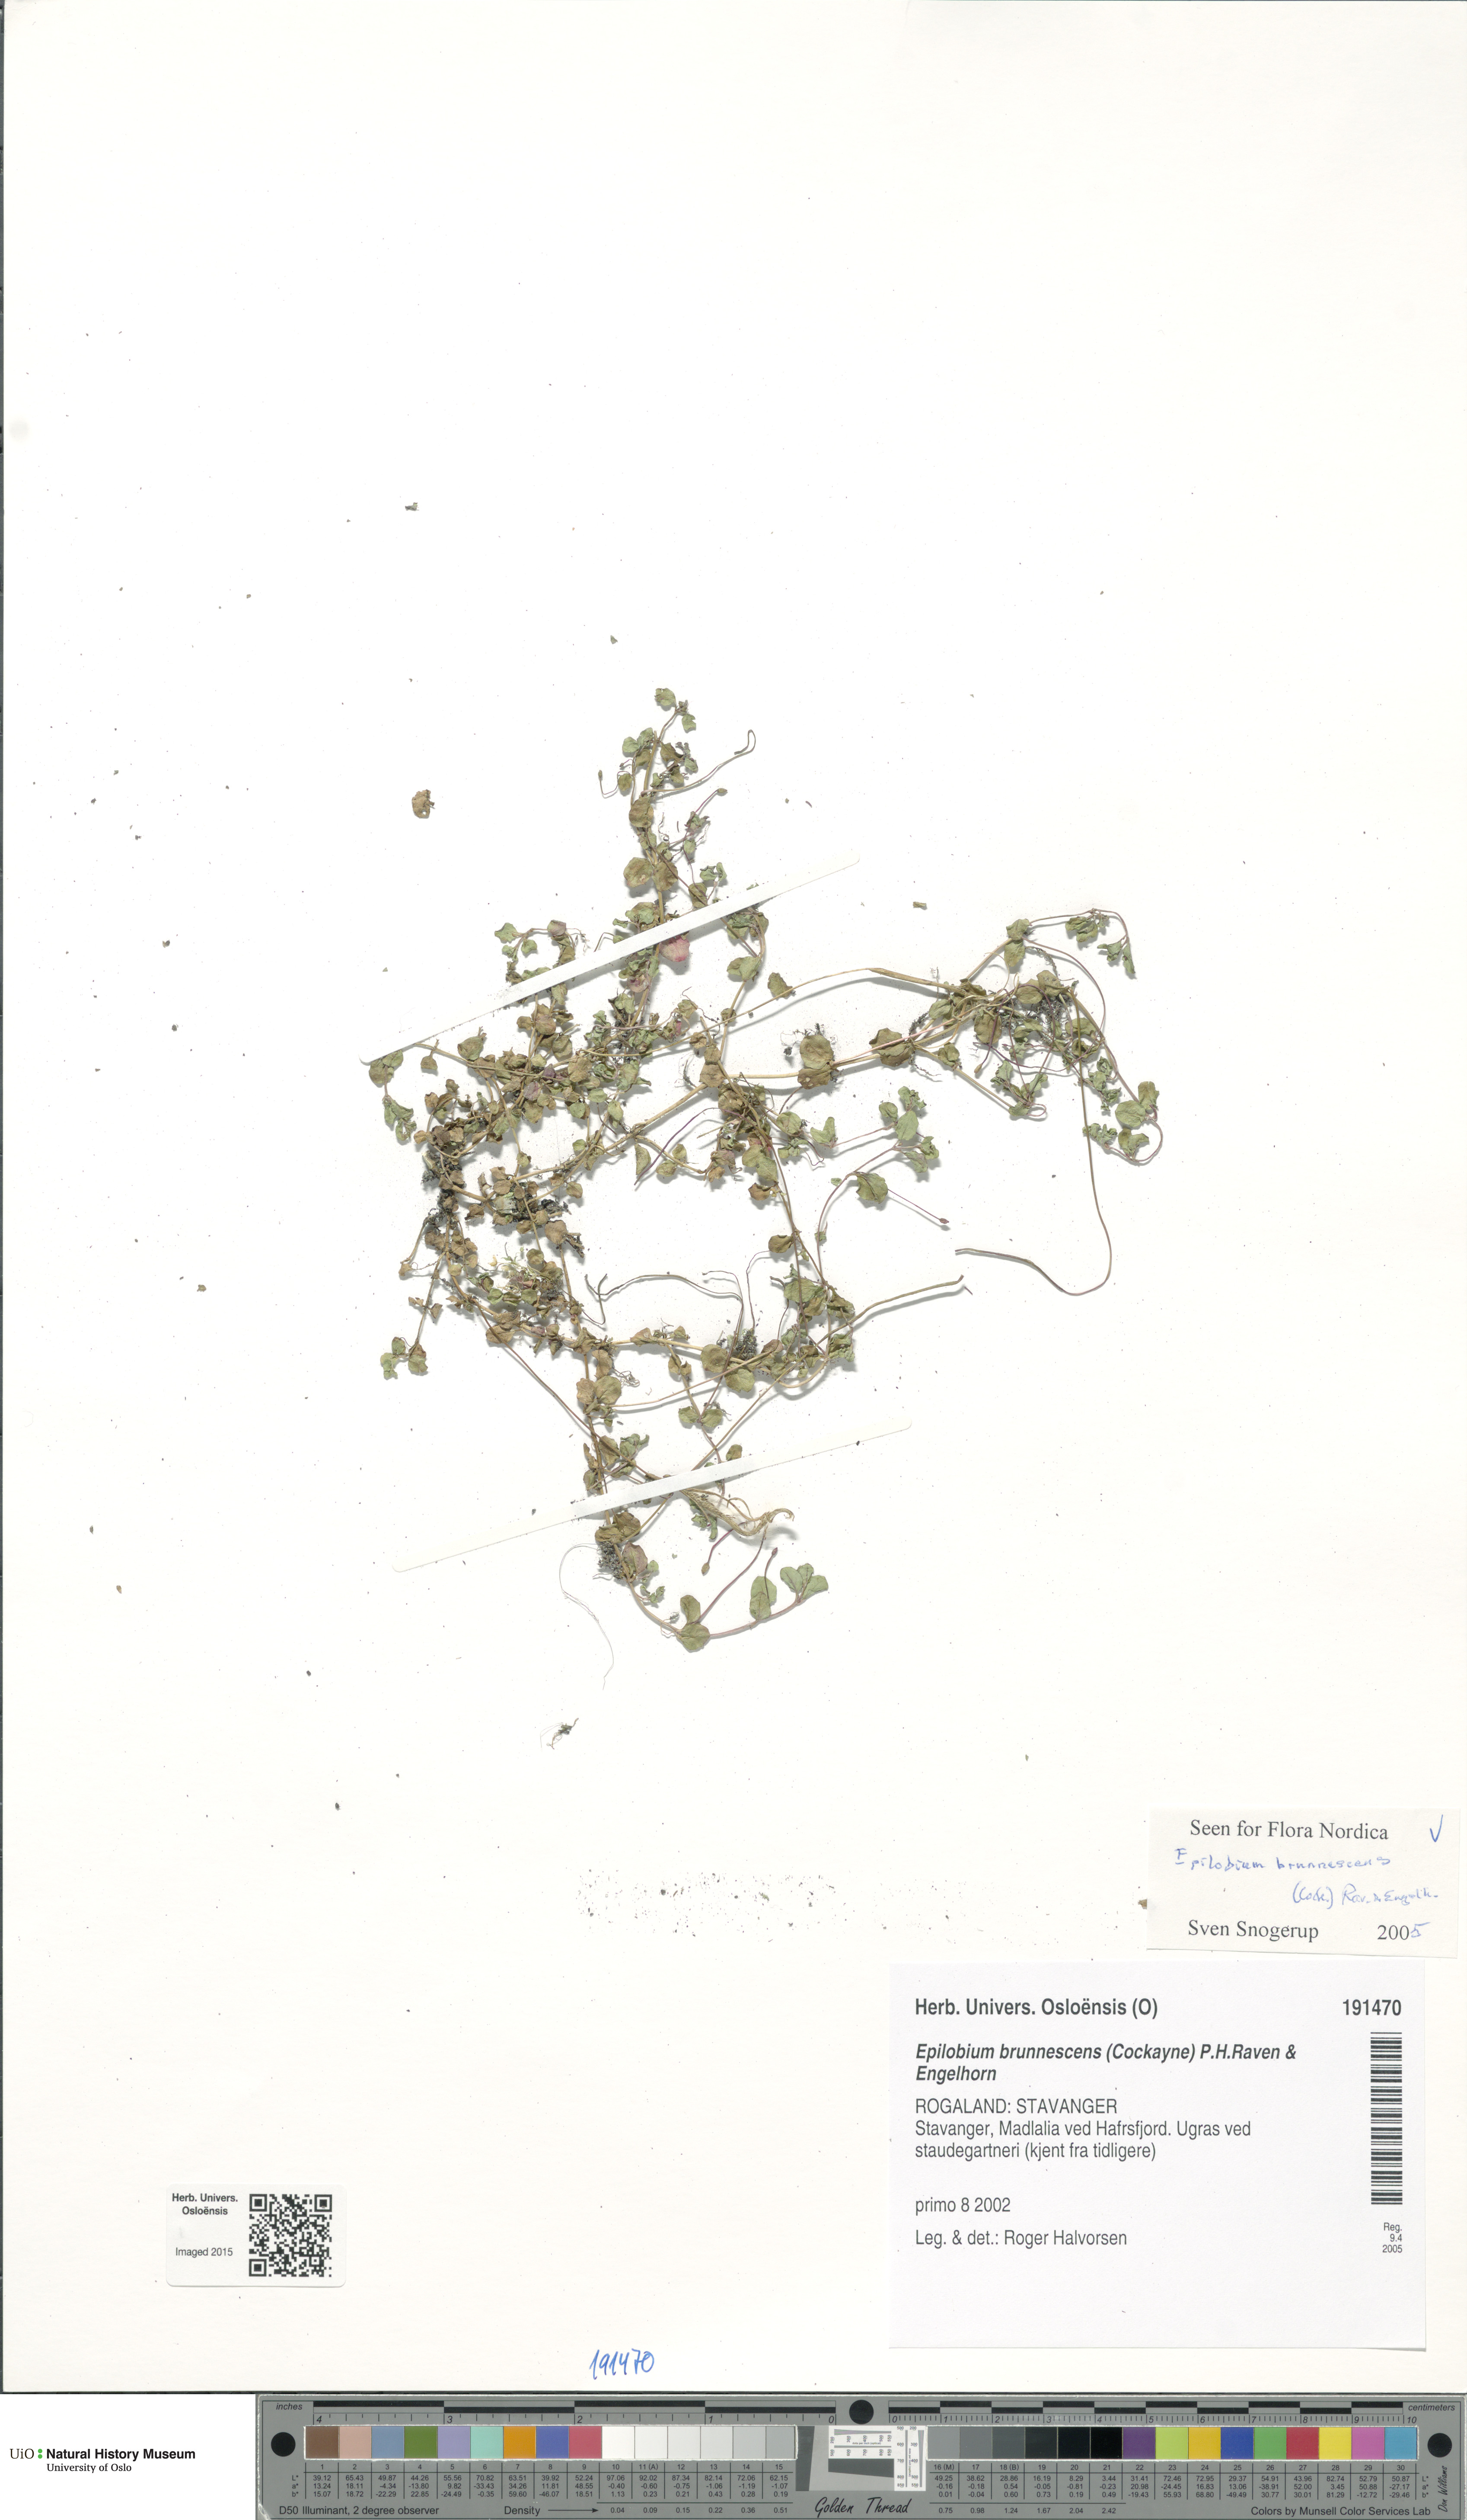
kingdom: Plantae
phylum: Tracheophyta
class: Magnoliopsida
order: Myrtales
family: Onagraceae
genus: Epilobium
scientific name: Epilobium brunnescens
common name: New zealand willowherb
